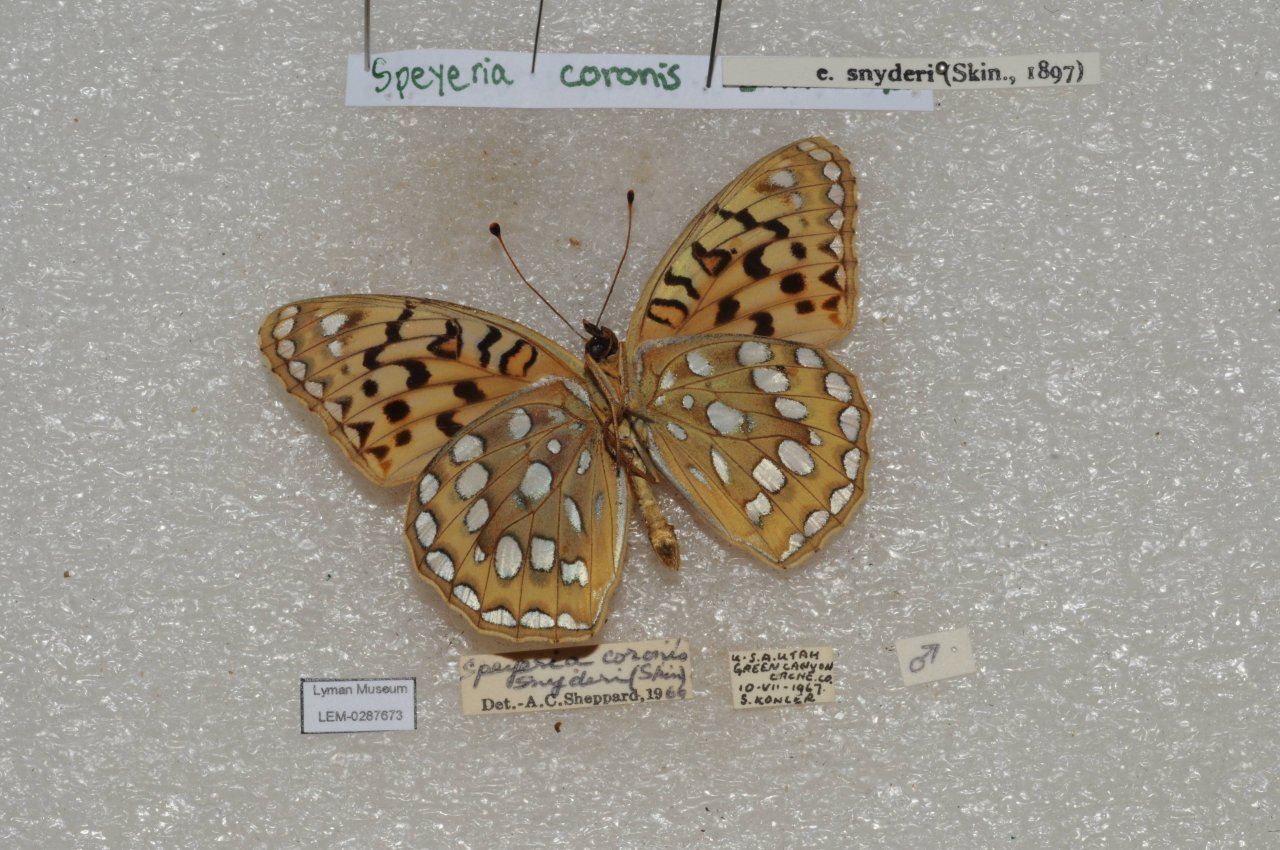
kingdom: Animalia
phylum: Arthropoda
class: Insecta
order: Lepidoptera
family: Nymphalidae
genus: Speyeria
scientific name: Speyeria coronis
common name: Coronis Fritillary
